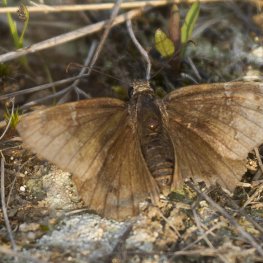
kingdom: Animalia
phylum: Arthropoda
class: Insecta
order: Lepidoptera
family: Hesperiidae
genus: Autochton
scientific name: Autochton
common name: Northern Cloudywing
